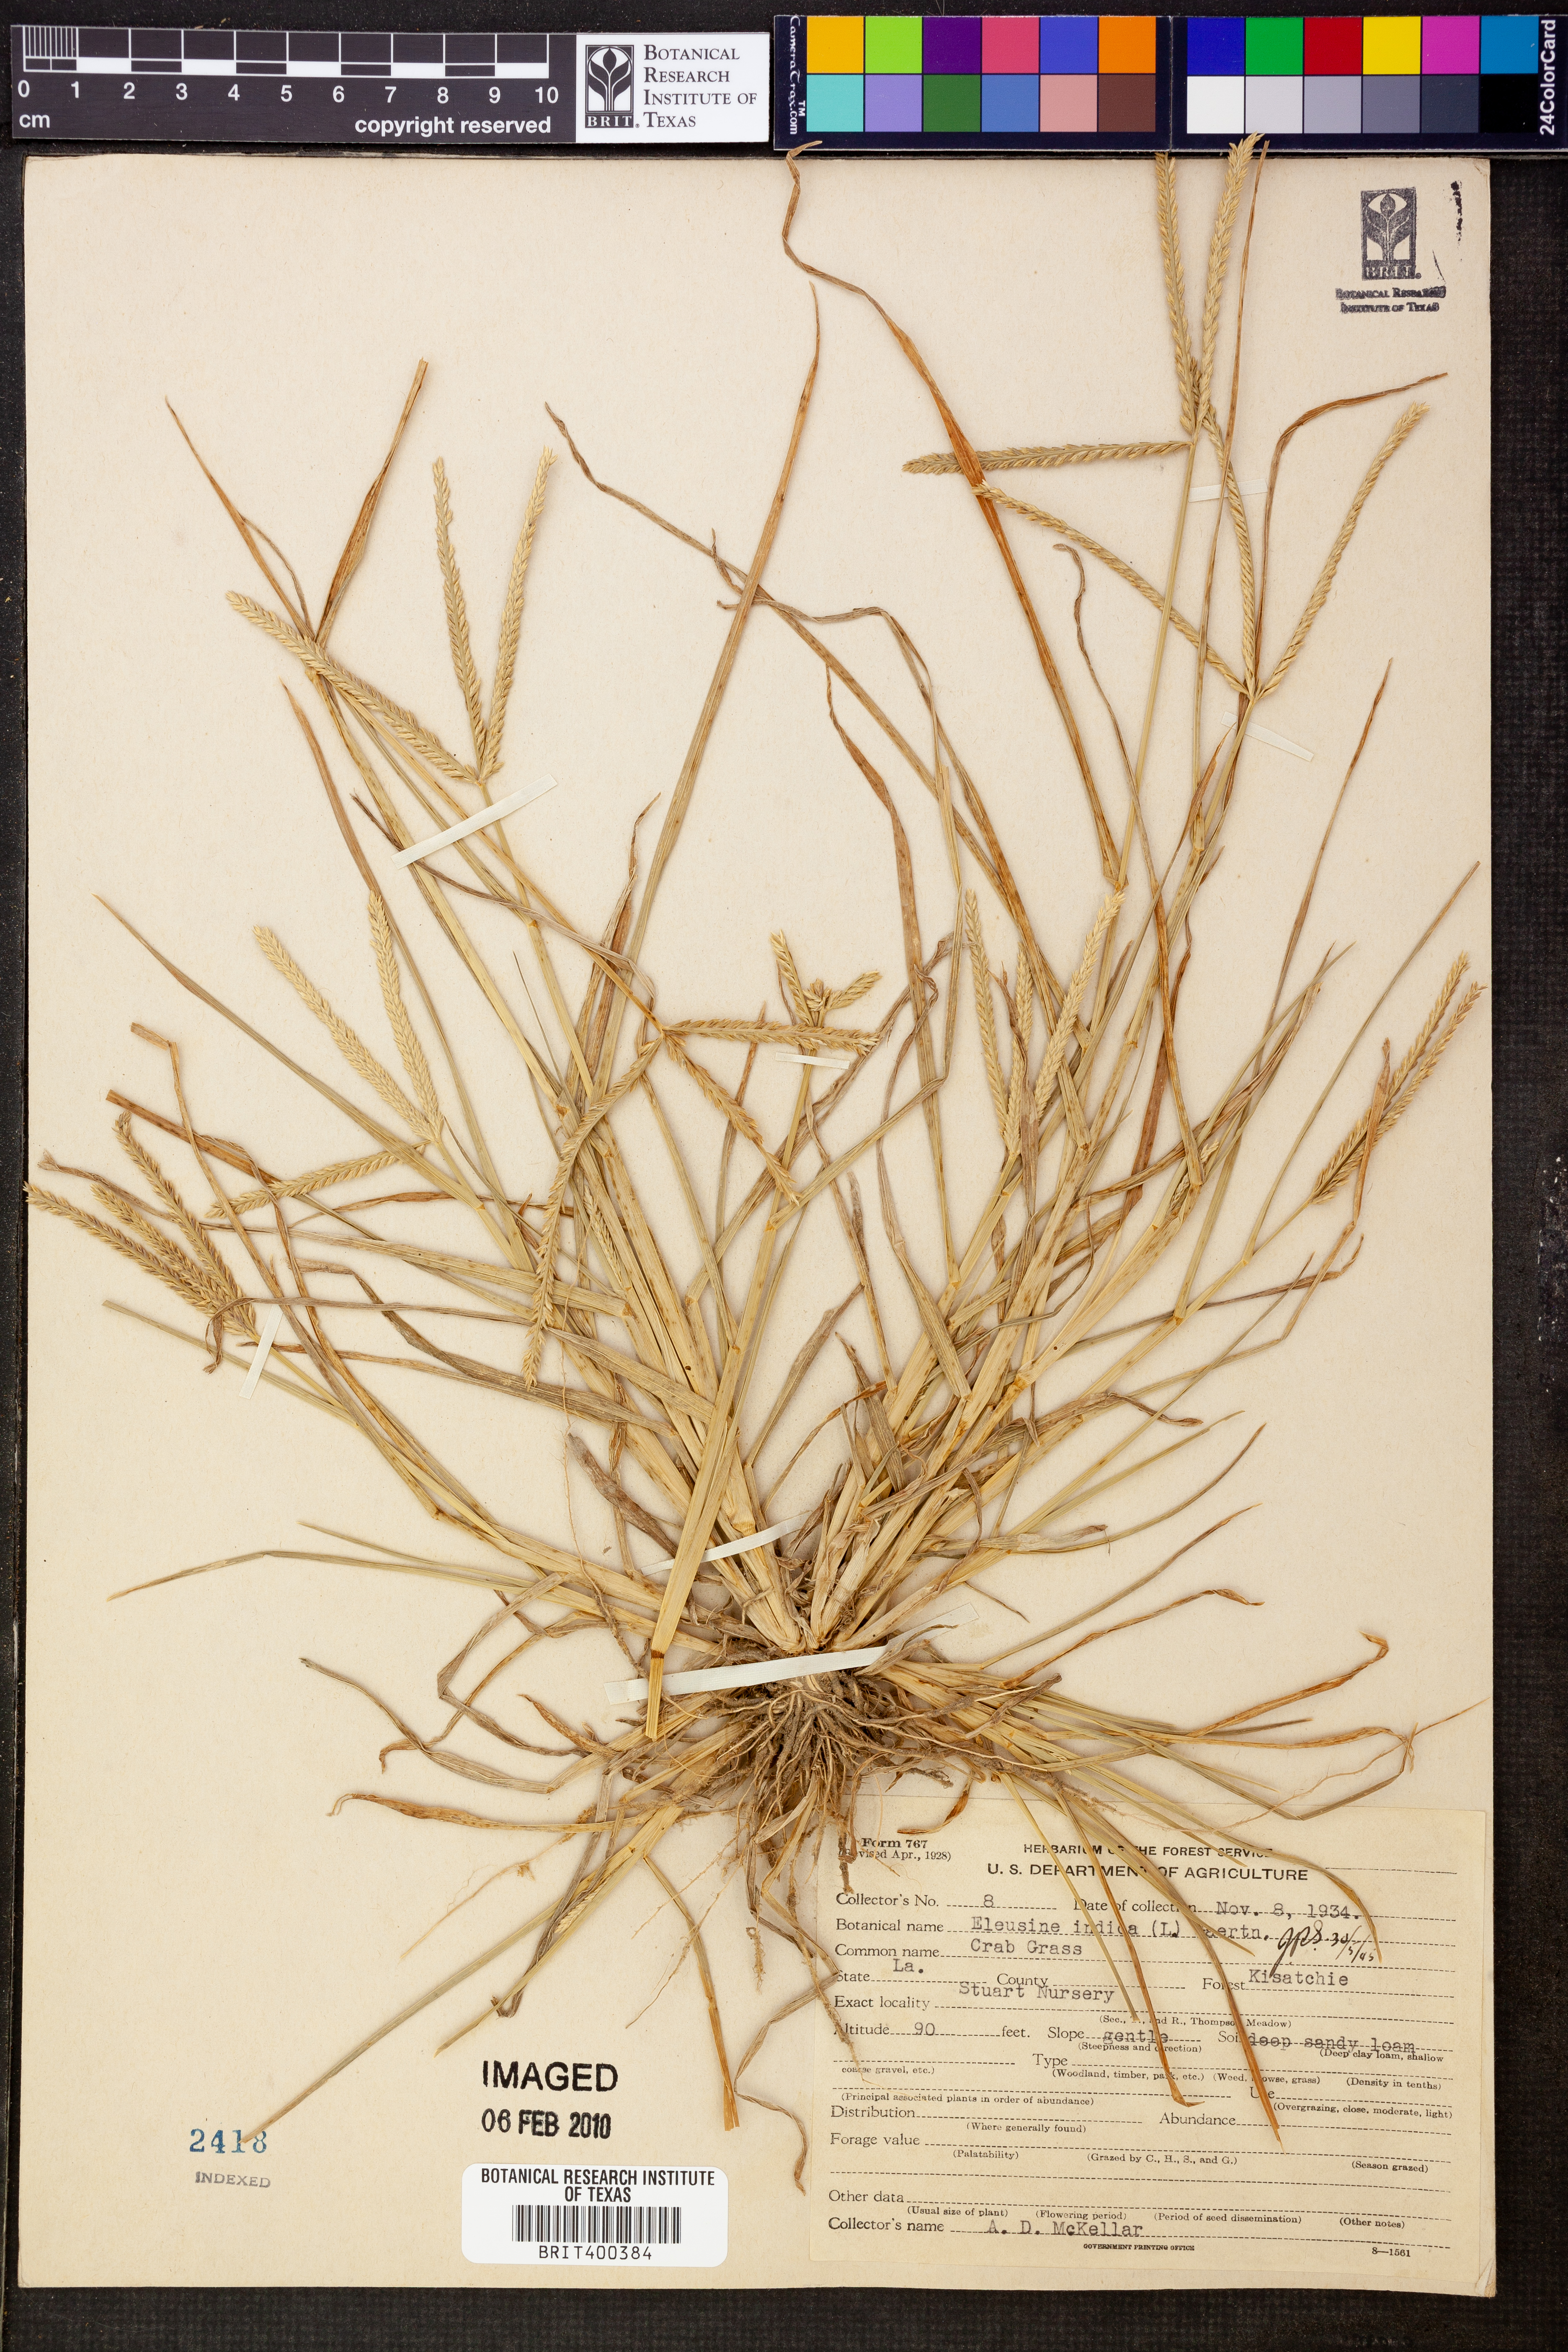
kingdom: Plantae
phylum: Tracheophyta
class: Liliopsida
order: Poales
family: Poaceae
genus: Eleusine
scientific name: Eleusine indica
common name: Yard-grass
